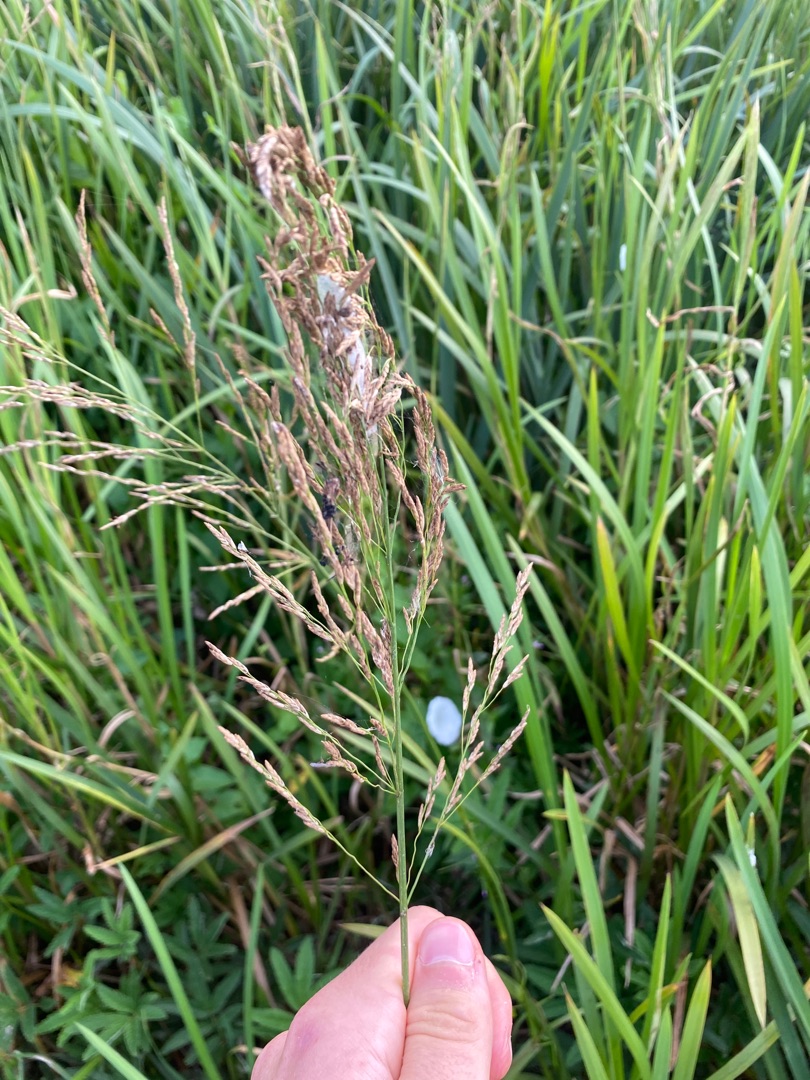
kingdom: Plantae
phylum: Tracheophyta
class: Liliopsida
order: Poales
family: Poaceae
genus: Glyceria
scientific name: Glyceria maxima
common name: Høj sødgræs
